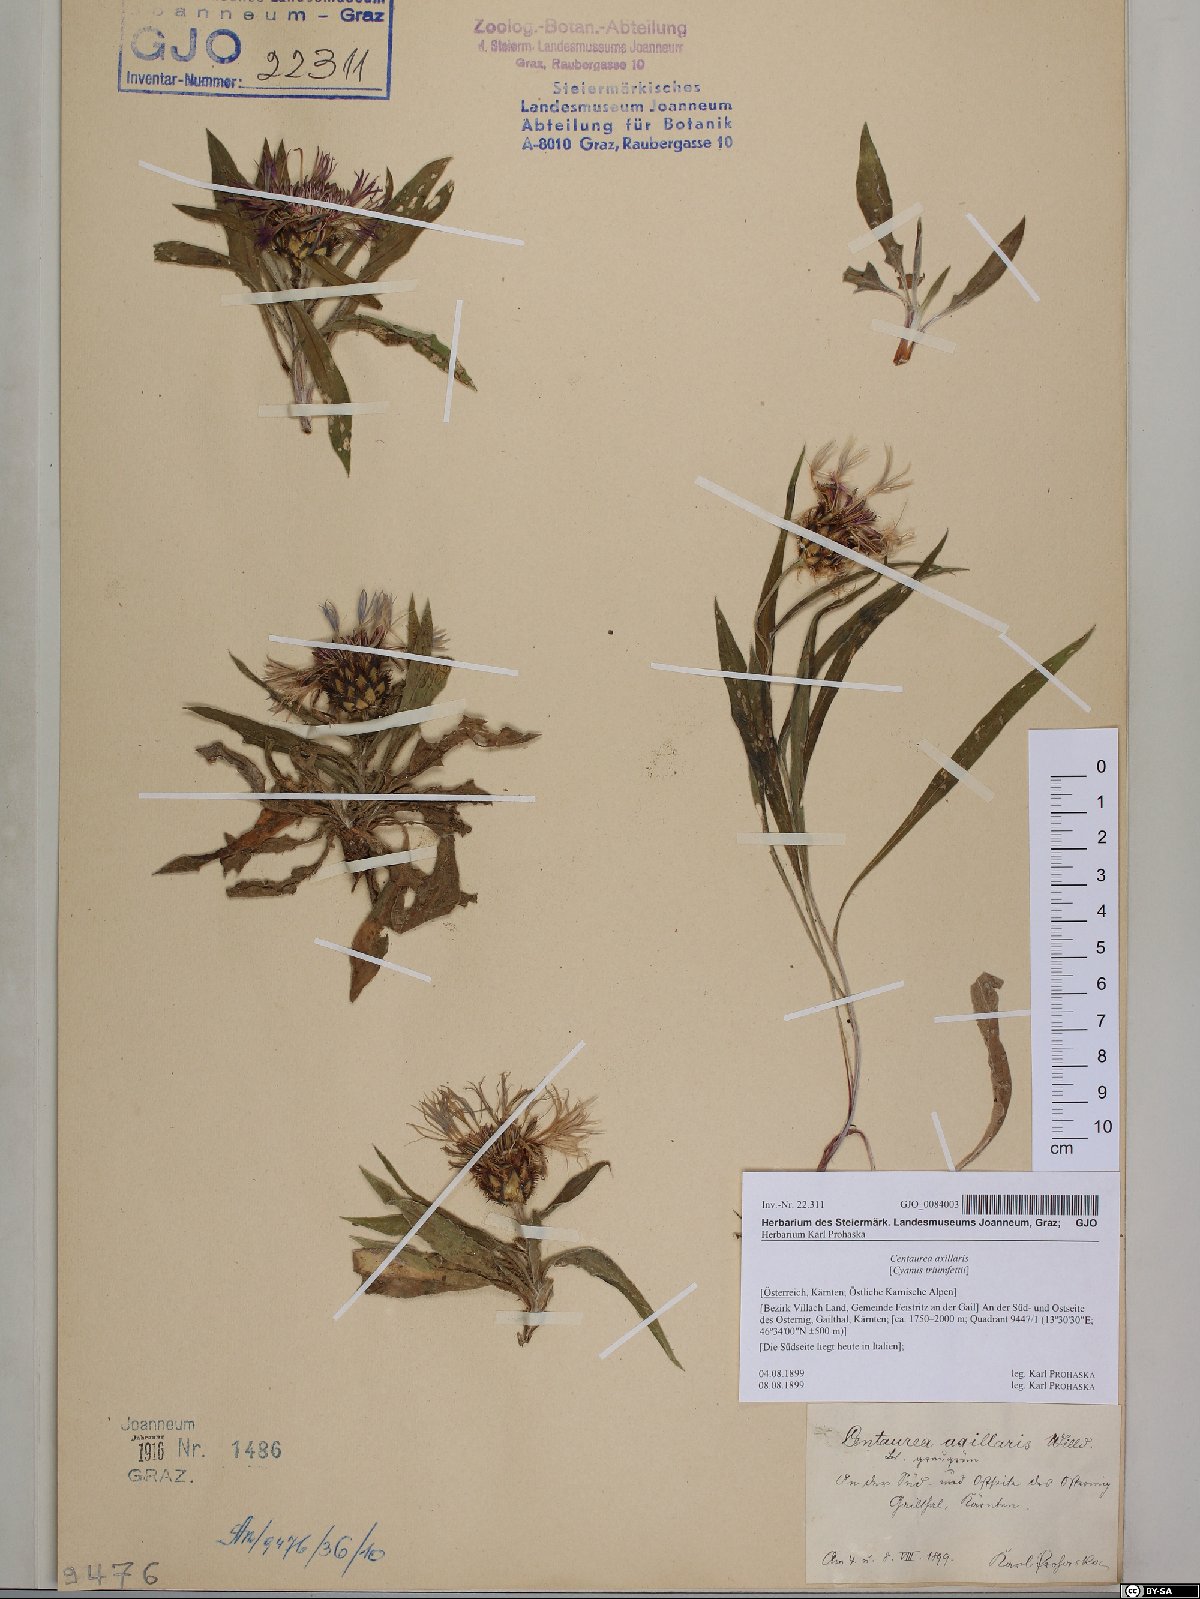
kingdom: Plantae
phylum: Tracheophyta
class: Magnoliopsida
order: Asterales
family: Asteraceae
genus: Centaurea
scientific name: Centaurea triumfettii
